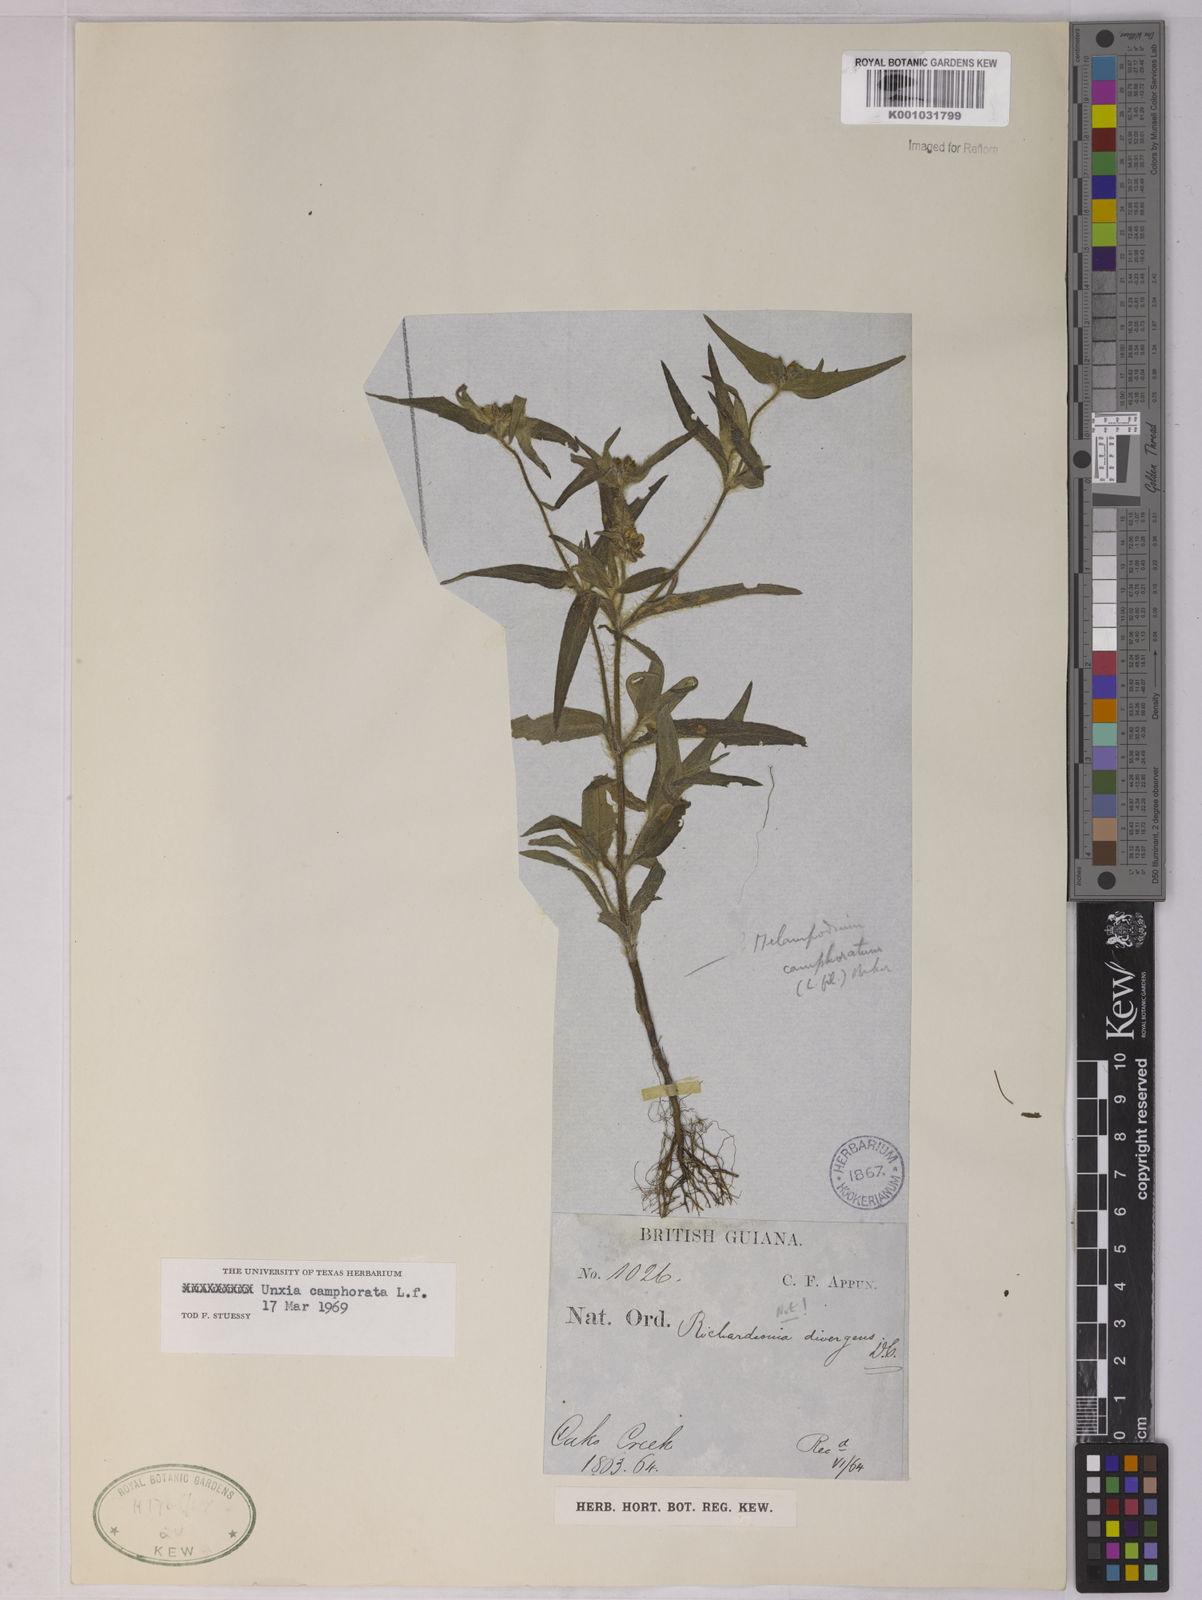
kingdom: Plantae
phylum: Tracheophyta
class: Magnoliopsida
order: Asterales
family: Asteraceae
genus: Unxia
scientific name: Unxia camphorata
